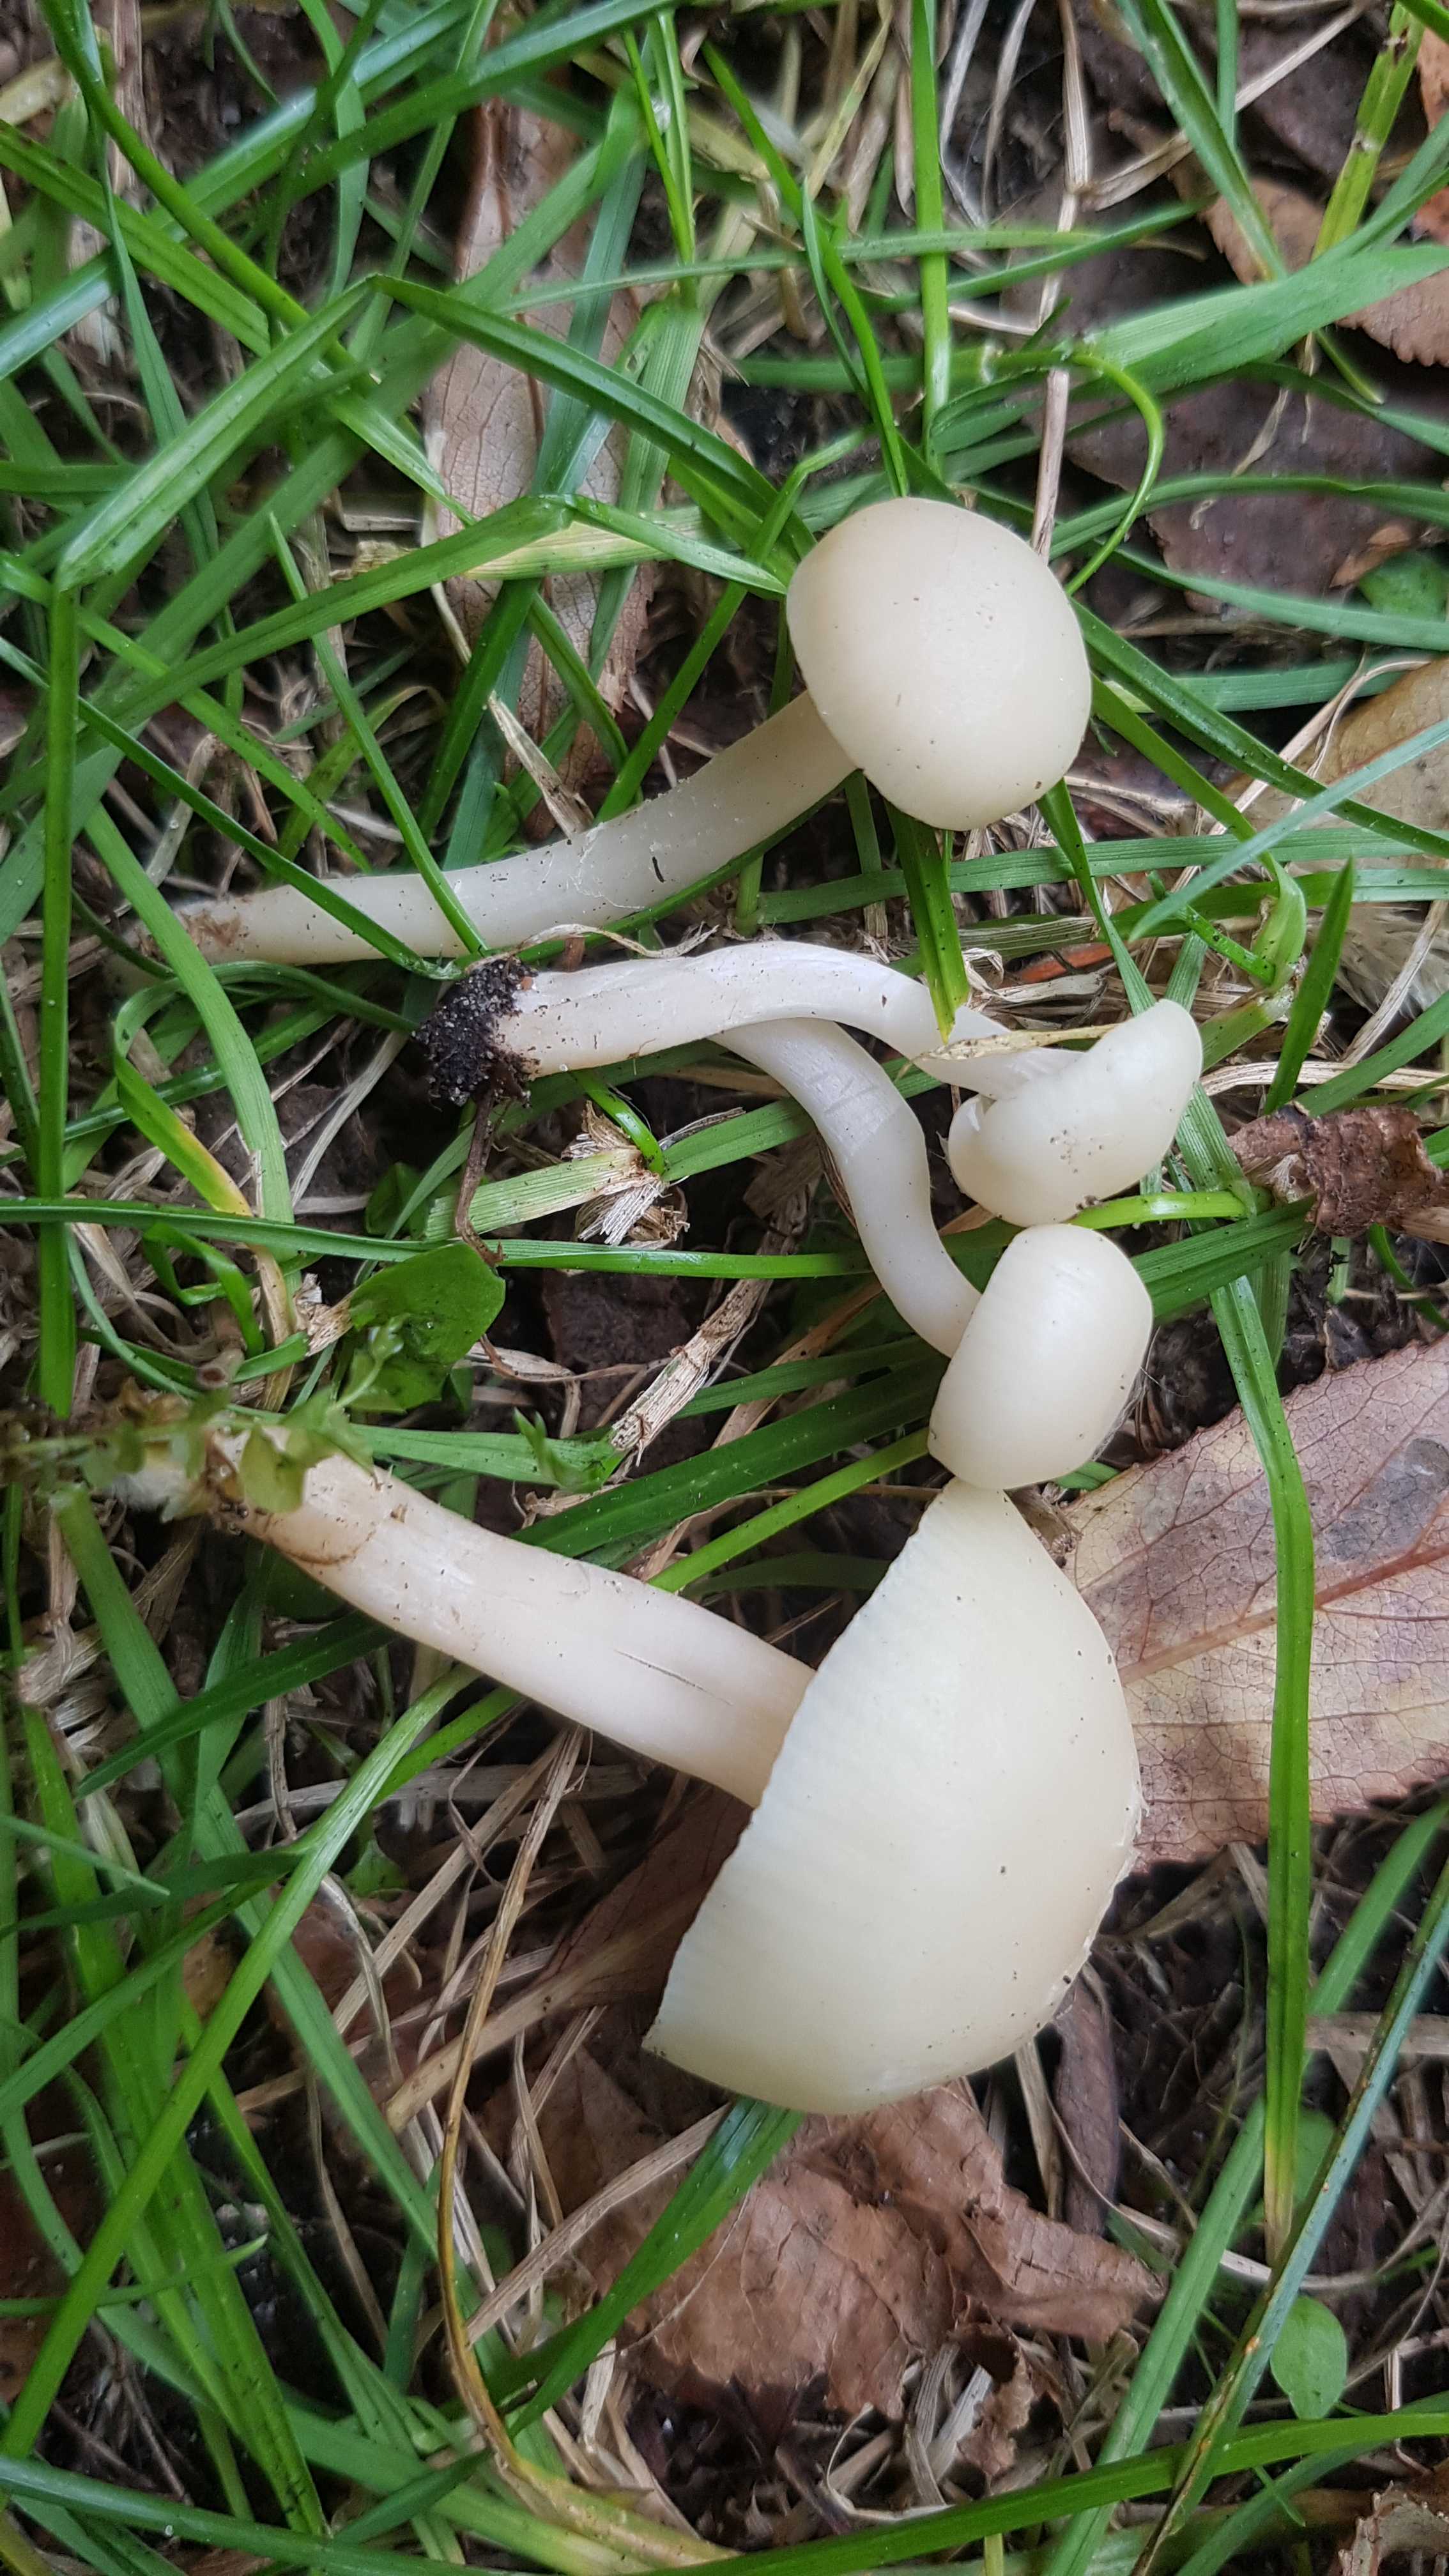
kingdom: Fungi
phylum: Basidiomycota
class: Agaricomycetes
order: Agaricales
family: Hygrophoraceae
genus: Cuphophyllus
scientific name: Cuphophyllus
